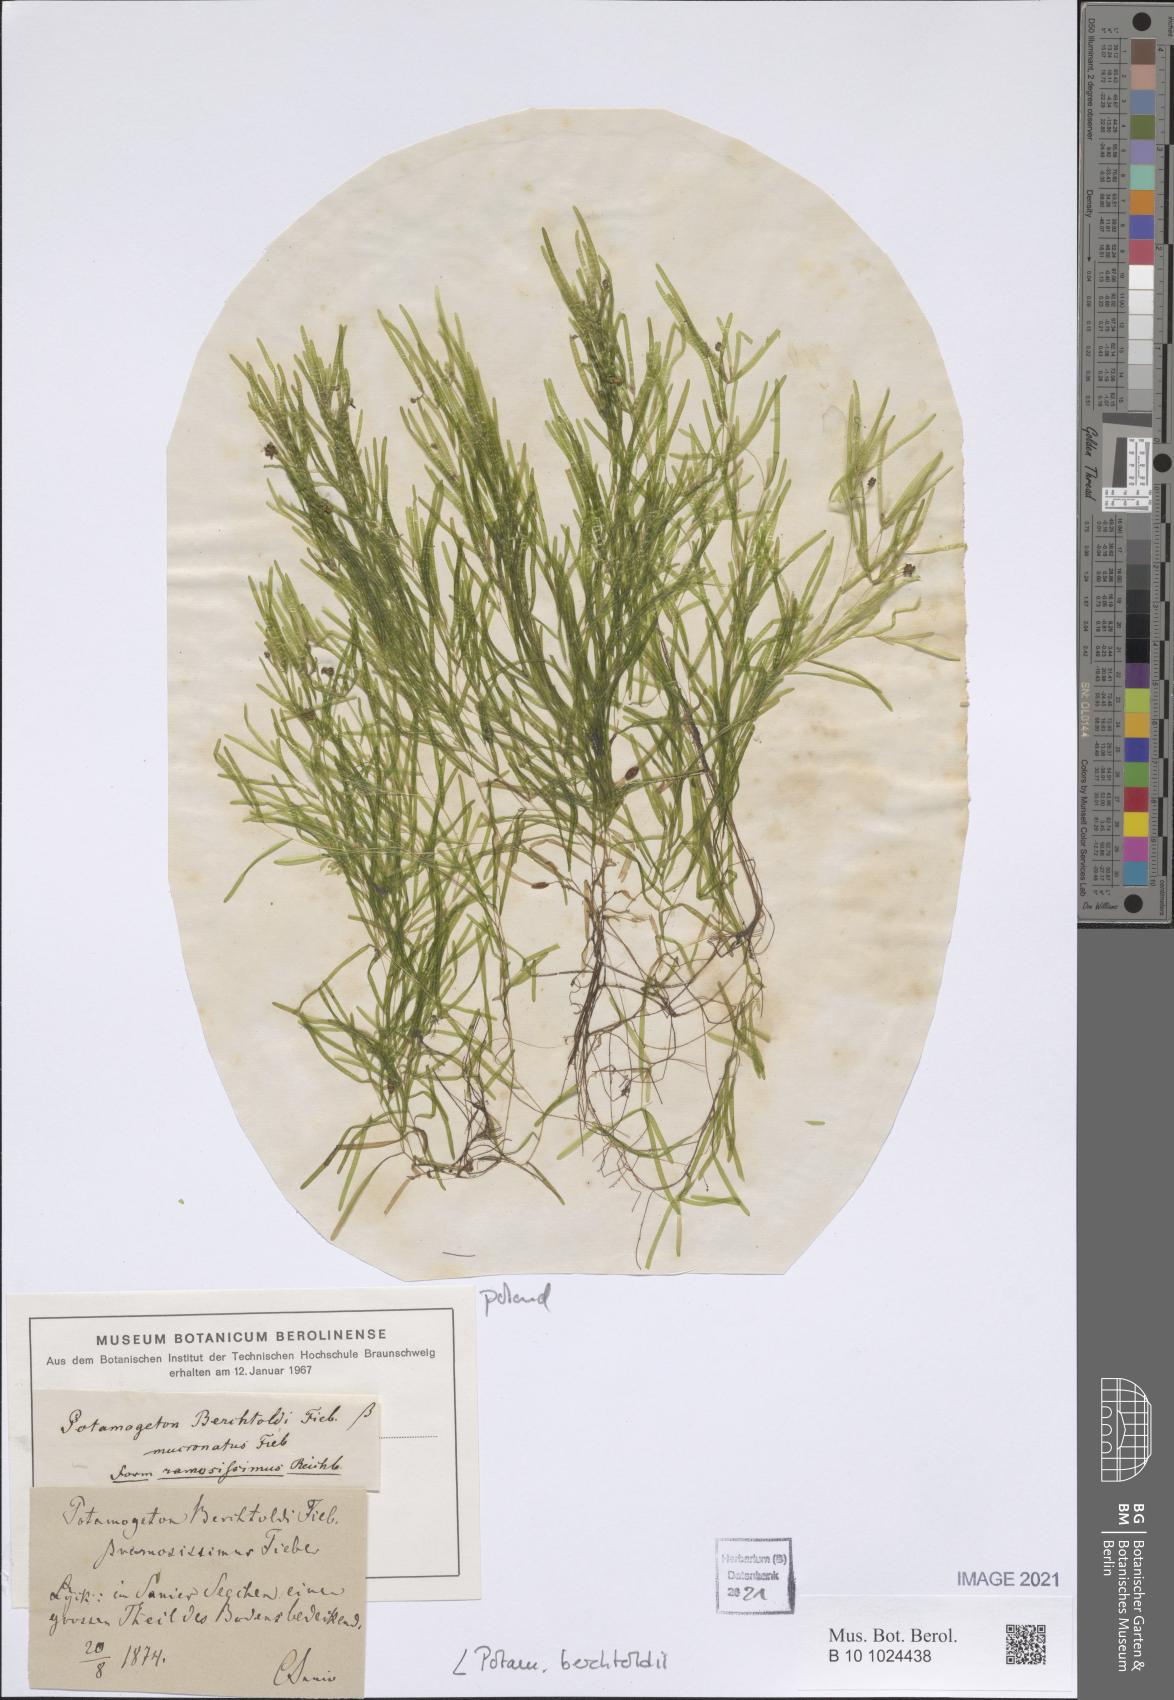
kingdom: Plantae
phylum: Tracheophyta
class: Liliopsida
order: Alismatales
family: Potamogetonaceae
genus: Potamogeton
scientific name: Potamogeton berchtoldii
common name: Small pondweed
